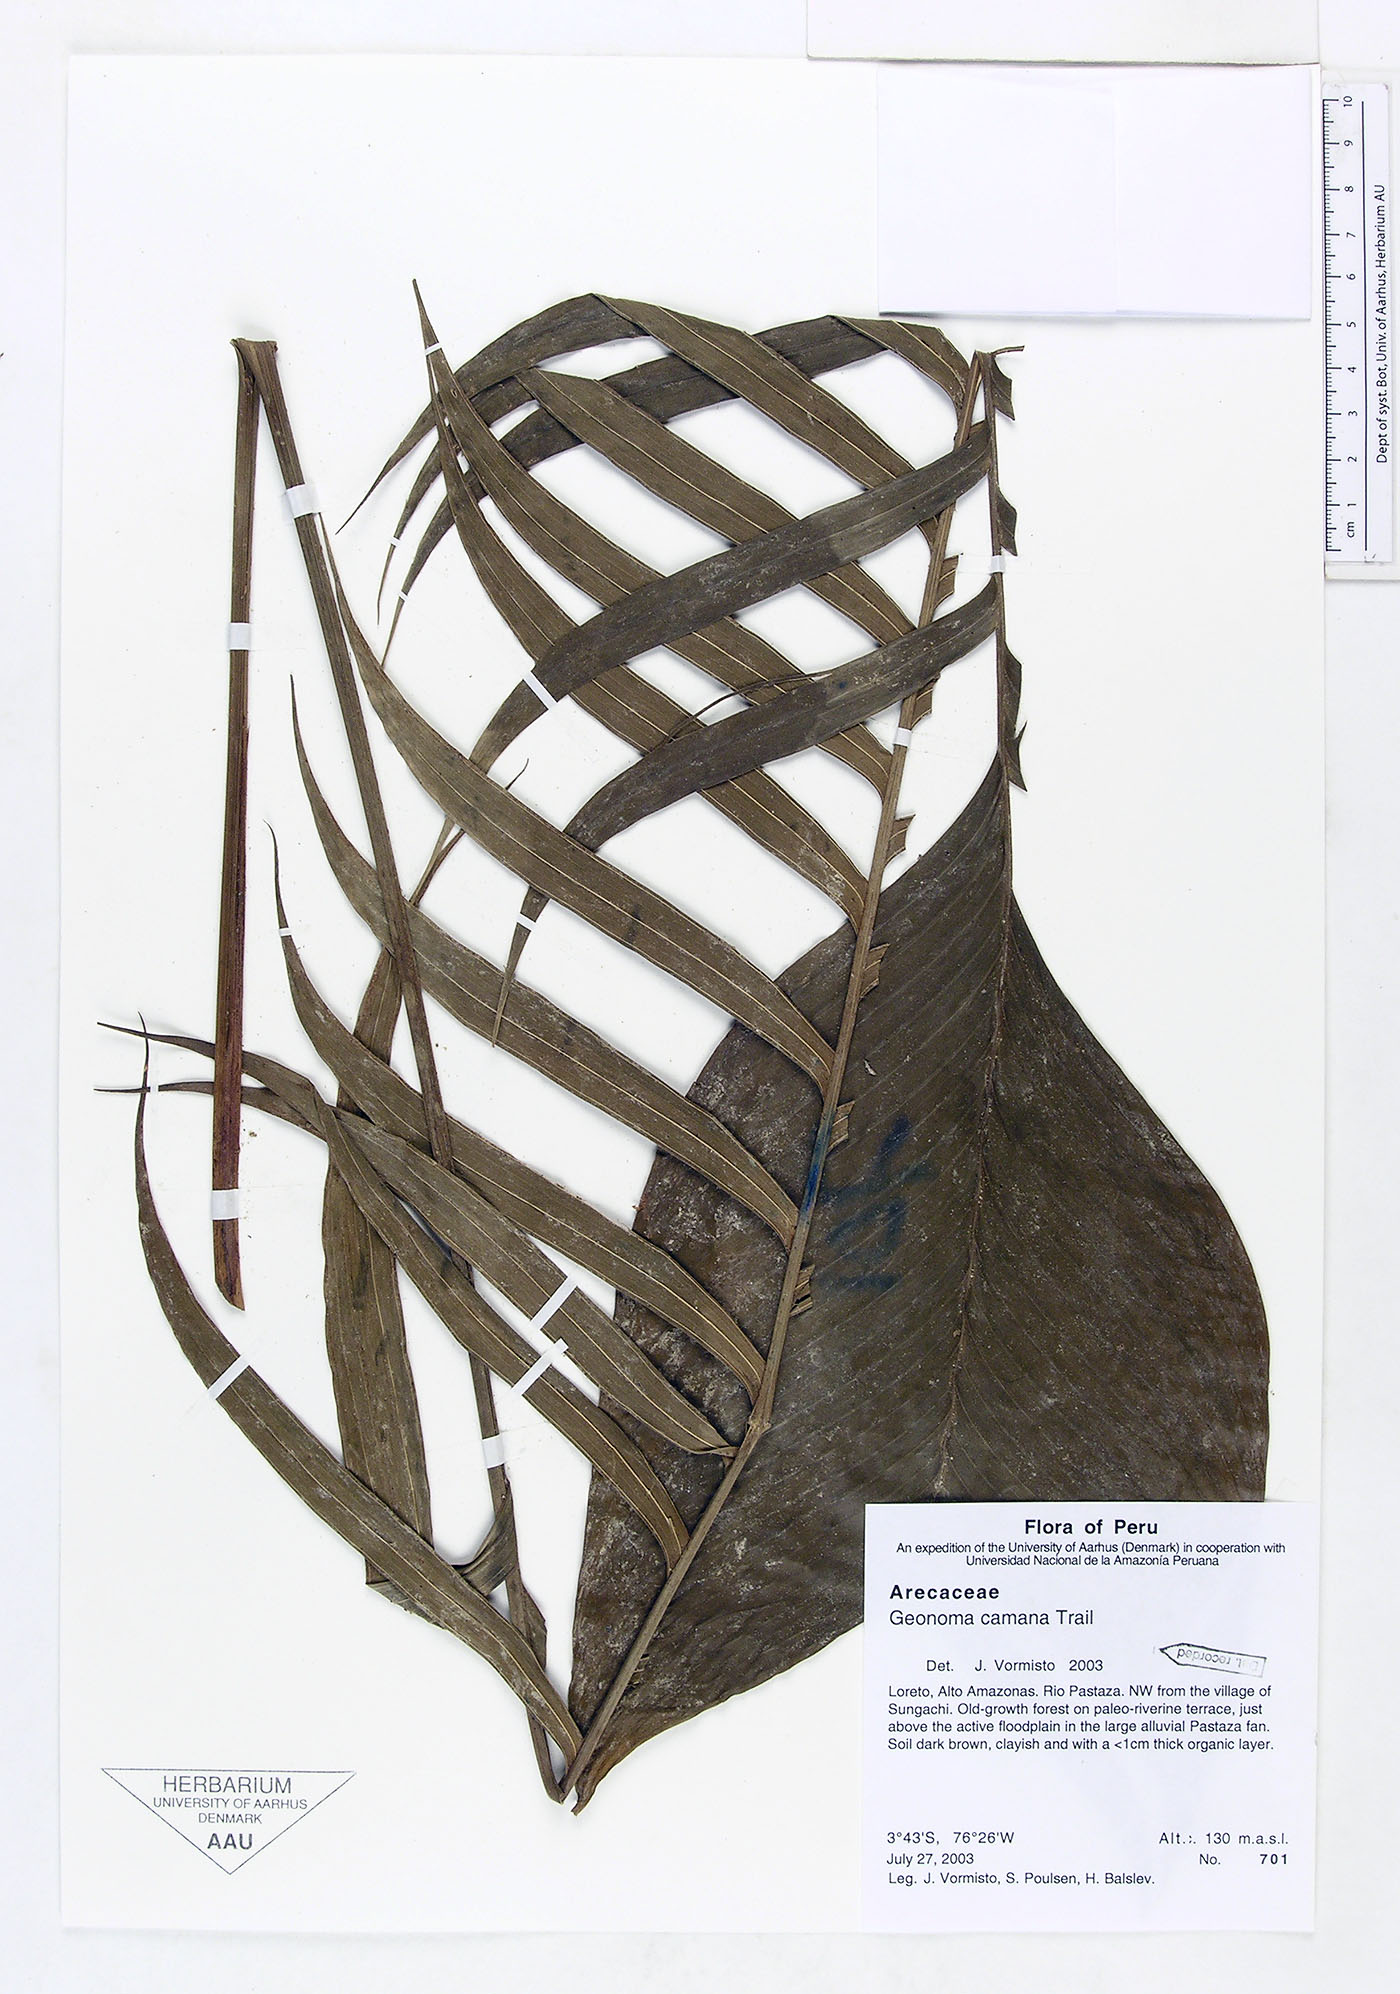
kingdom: Plantae
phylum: Tracheophyta
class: Liliopsida
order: Arecales
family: Arecaceae
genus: Geonoma
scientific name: Geonoma camana
